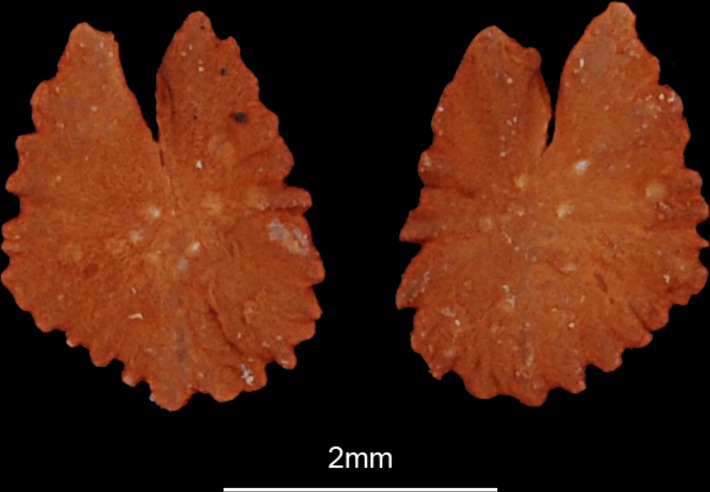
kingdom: Animalia
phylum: Chordata
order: Characiformes
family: Distichodontidae
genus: Ichthyborus
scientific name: Ichthyborus besse
